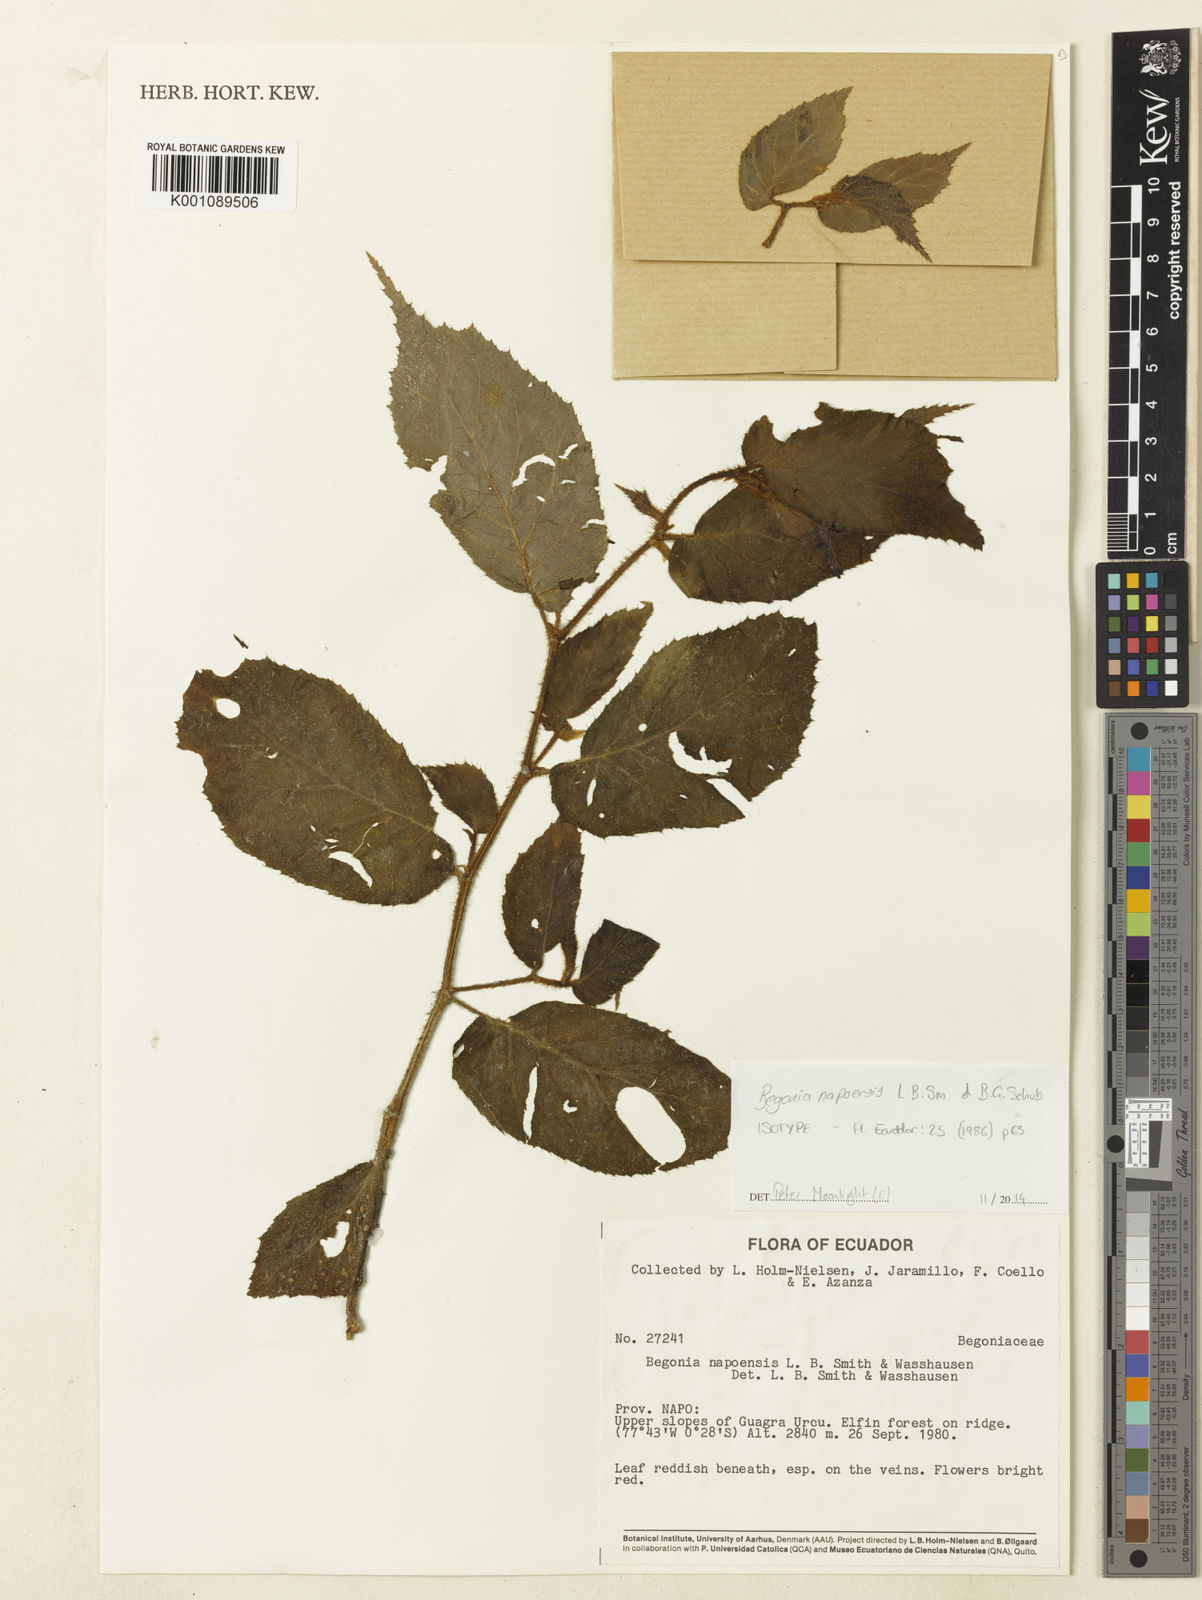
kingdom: Plantae
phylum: Tracheophyta
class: Magnoliopsida
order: Cucurbitales
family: Begoniaceae
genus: Begonia
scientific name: Begonia napoensis
